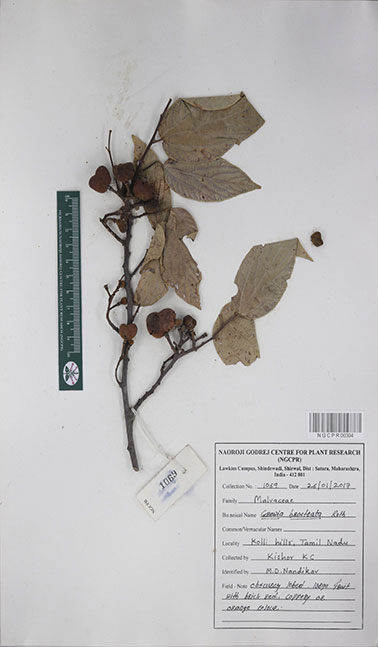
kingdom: Plantae
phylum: Tracheophyta
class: Magnoliopsida
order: Malvales
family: Malvaceae
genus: Grewia
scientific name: Grewia bracteata
